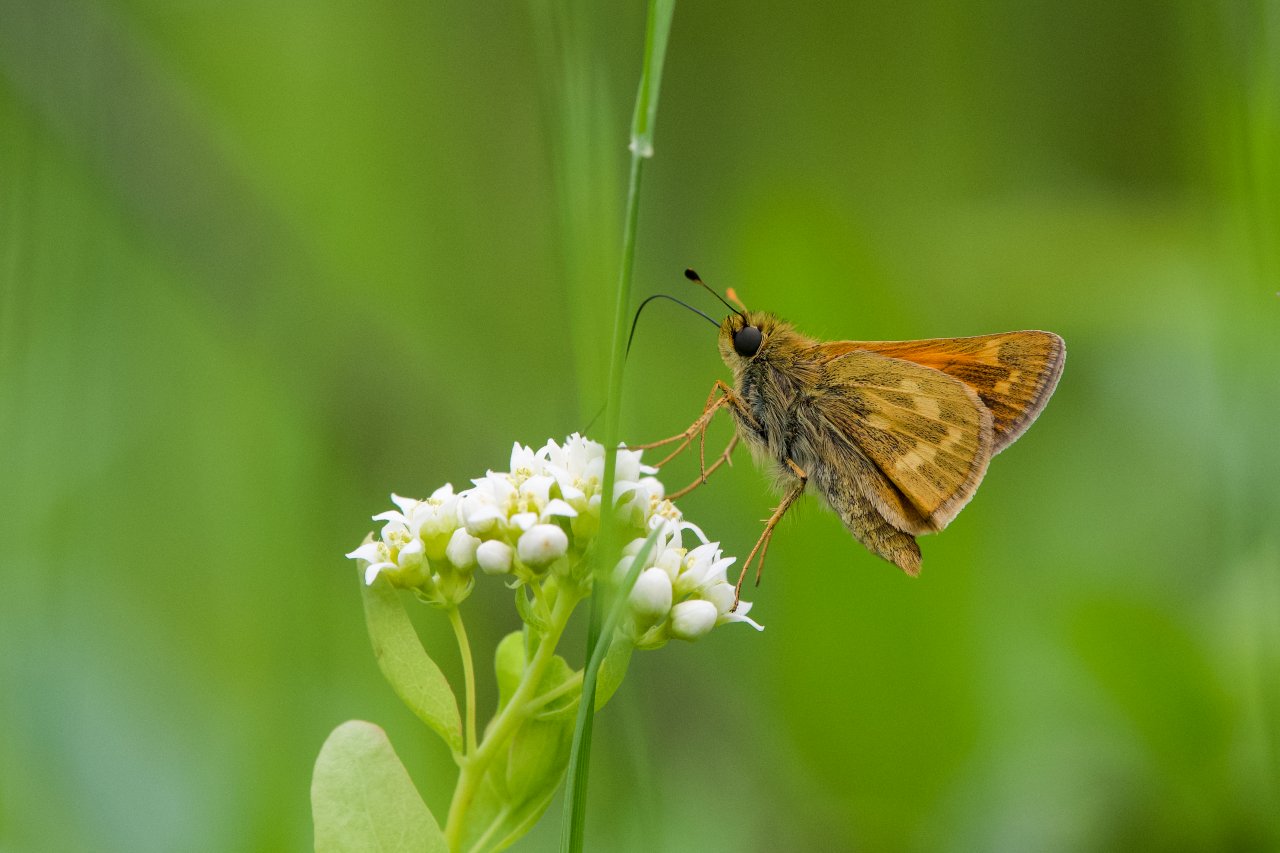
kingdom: Animalia
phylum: Arthropoda
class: Insecta
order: Lepidoptera
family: Hesperiidae
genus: Hesperia
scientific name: Hesperia sassacus
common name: Sassacus Skipper
